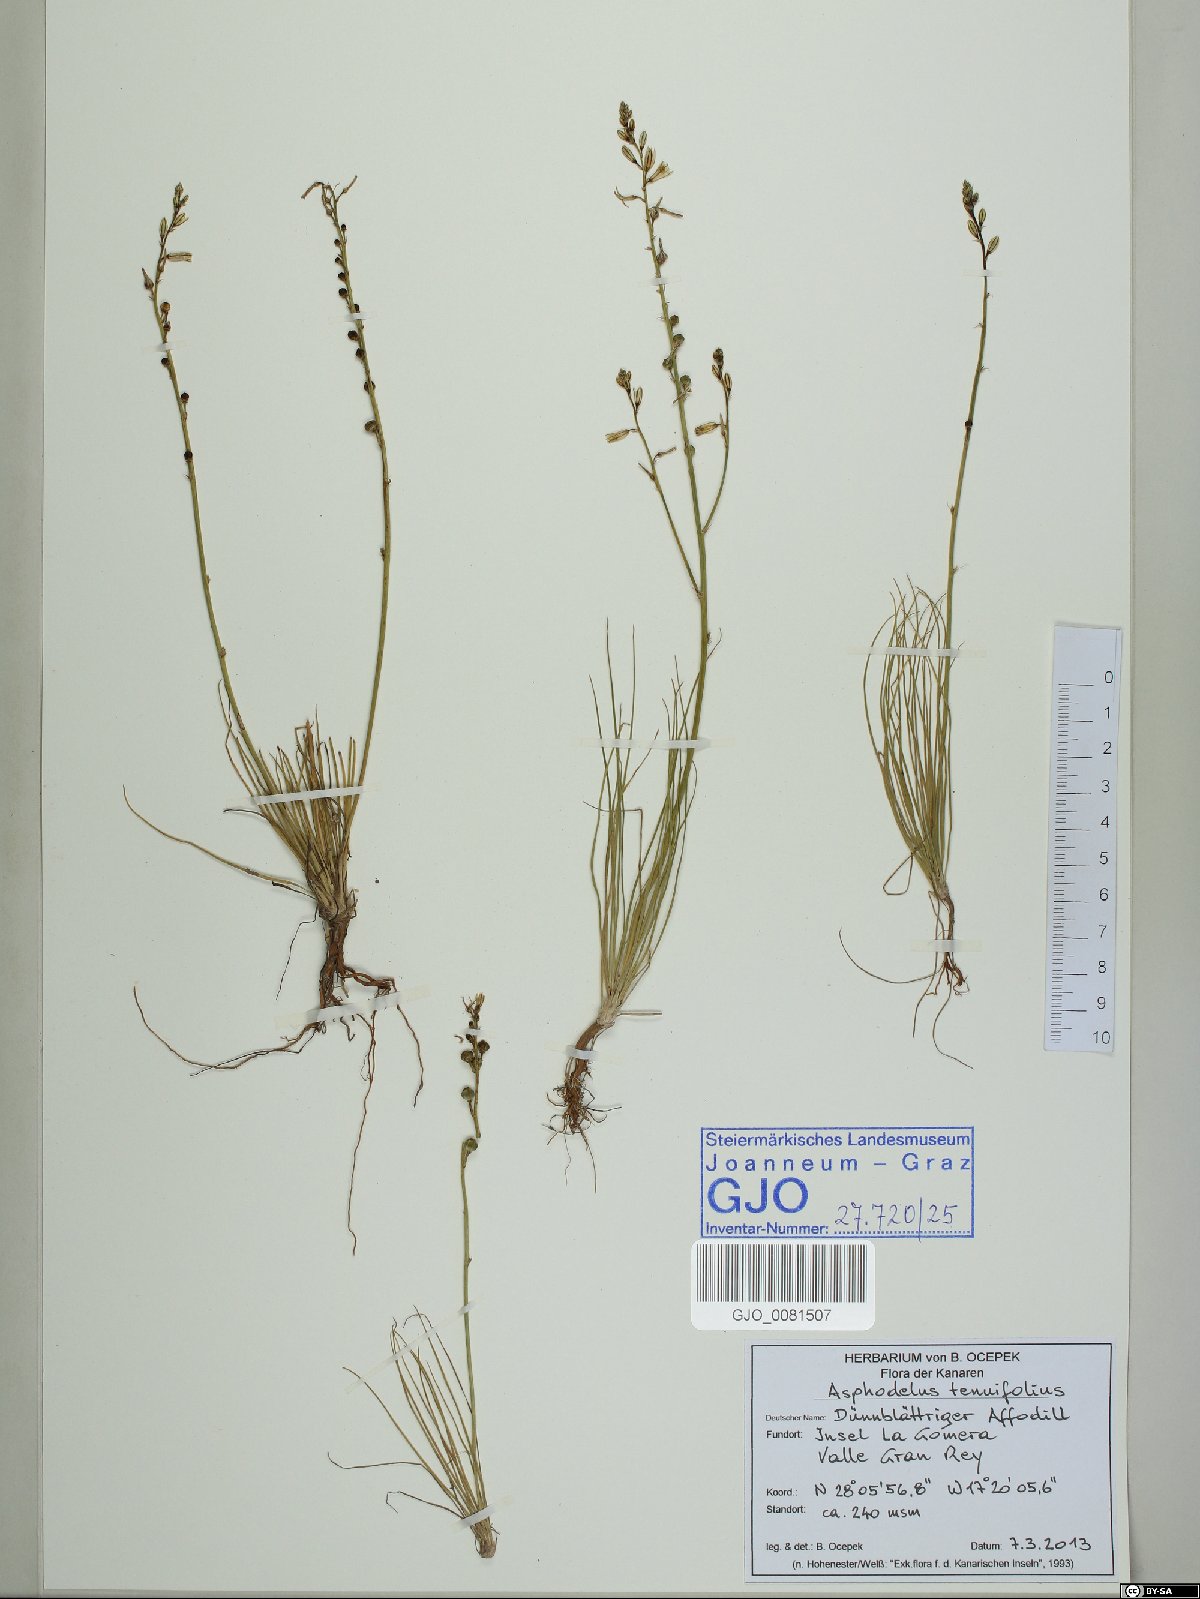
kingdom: Plantae
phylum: Tracheophyta
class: Liliopsida
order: Asparagales
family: Asphodelaceae
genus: Asphodelus
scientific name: Asphodelus tenuifolius
